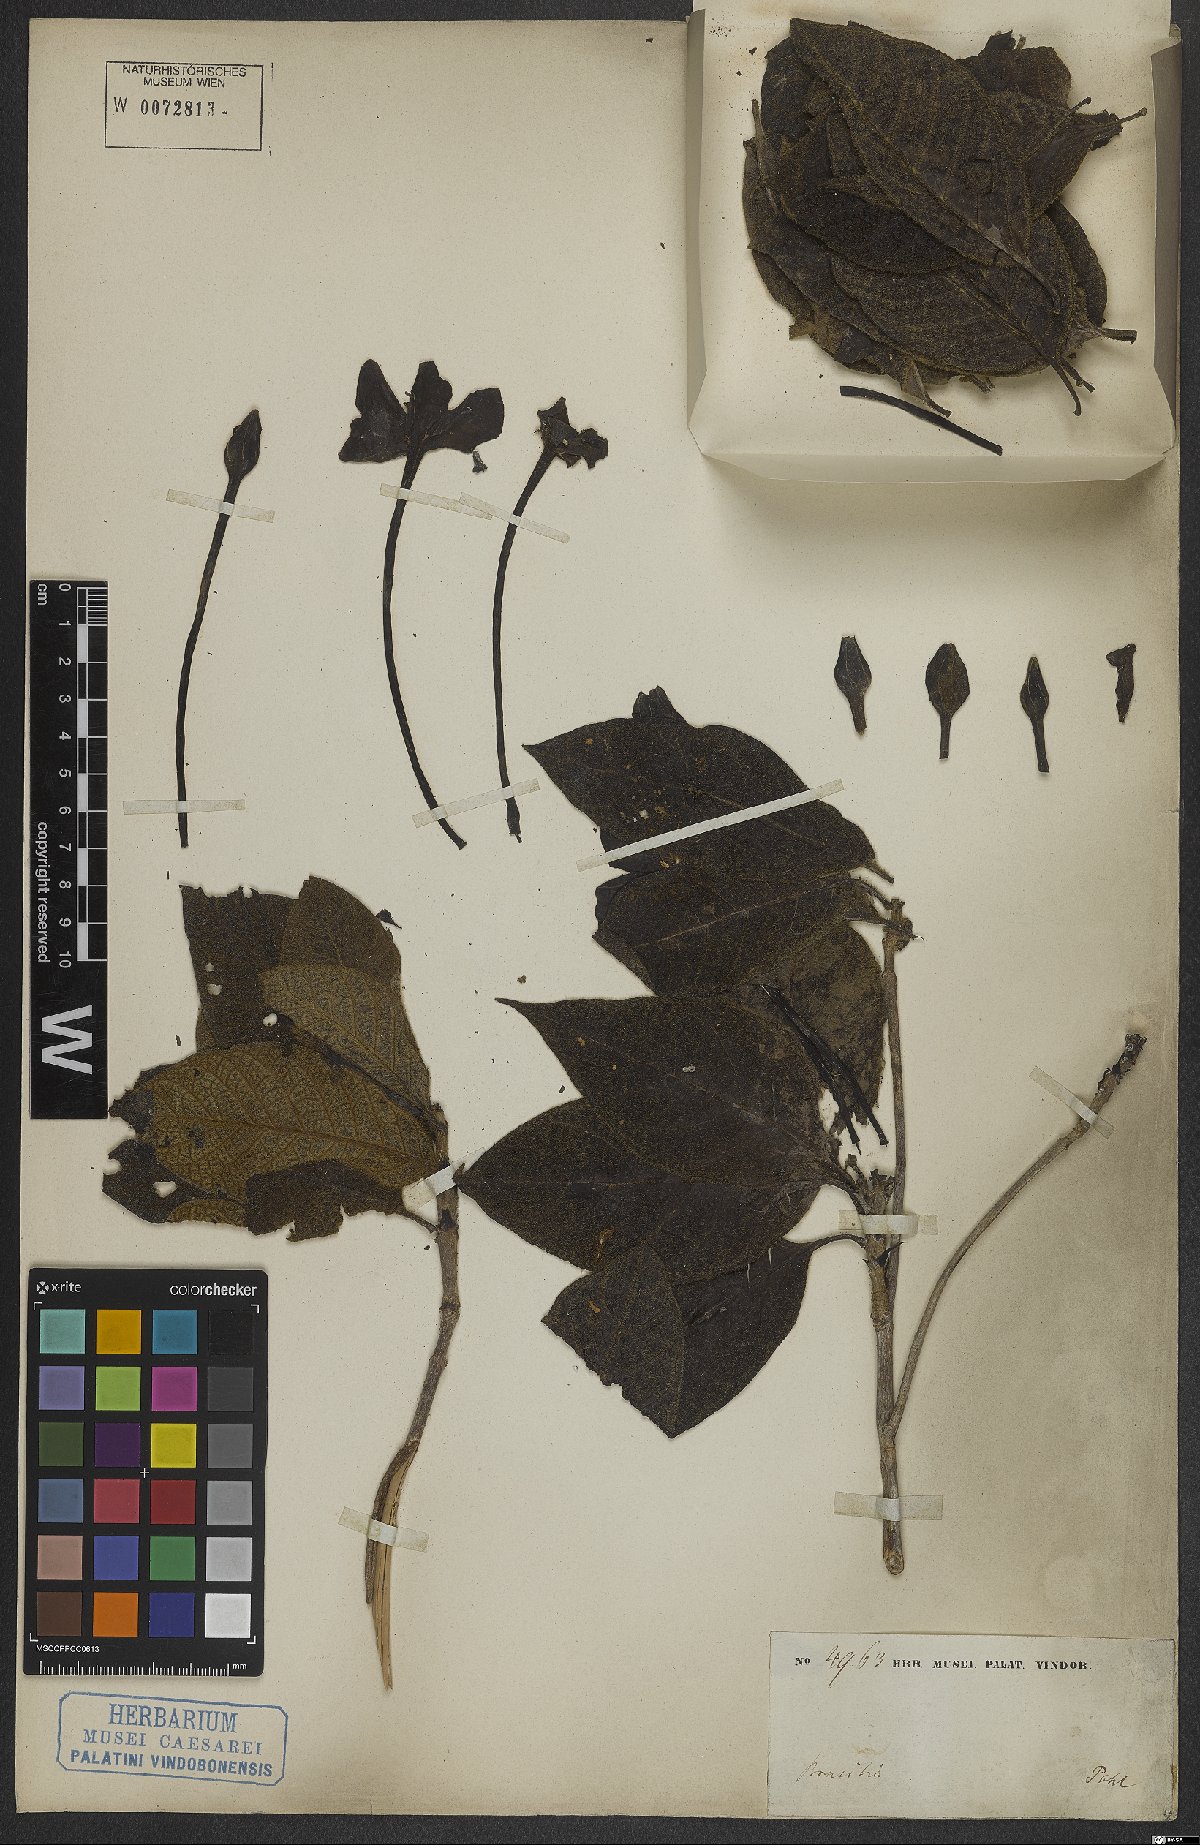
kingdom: Plantae
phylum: Tracheophyta
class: Magnoliopsida
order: Gentianales
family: Rubiaceae
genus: Tocoyena
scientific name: Tocoyena bullata
